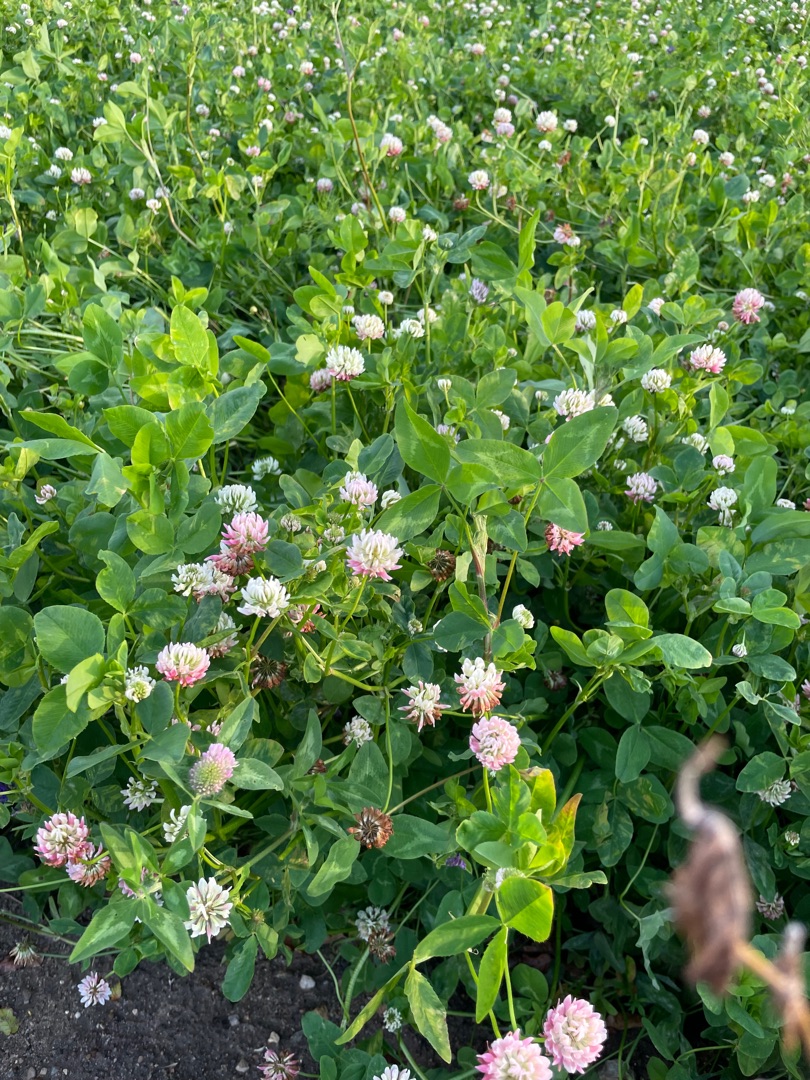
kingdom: Plantae
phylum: Tracheophyta
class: Magnoliopsida
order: Fabales
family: Fabaceae
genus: Trifolium
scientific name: Trifolium hybridum
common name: Alsike-kløver
